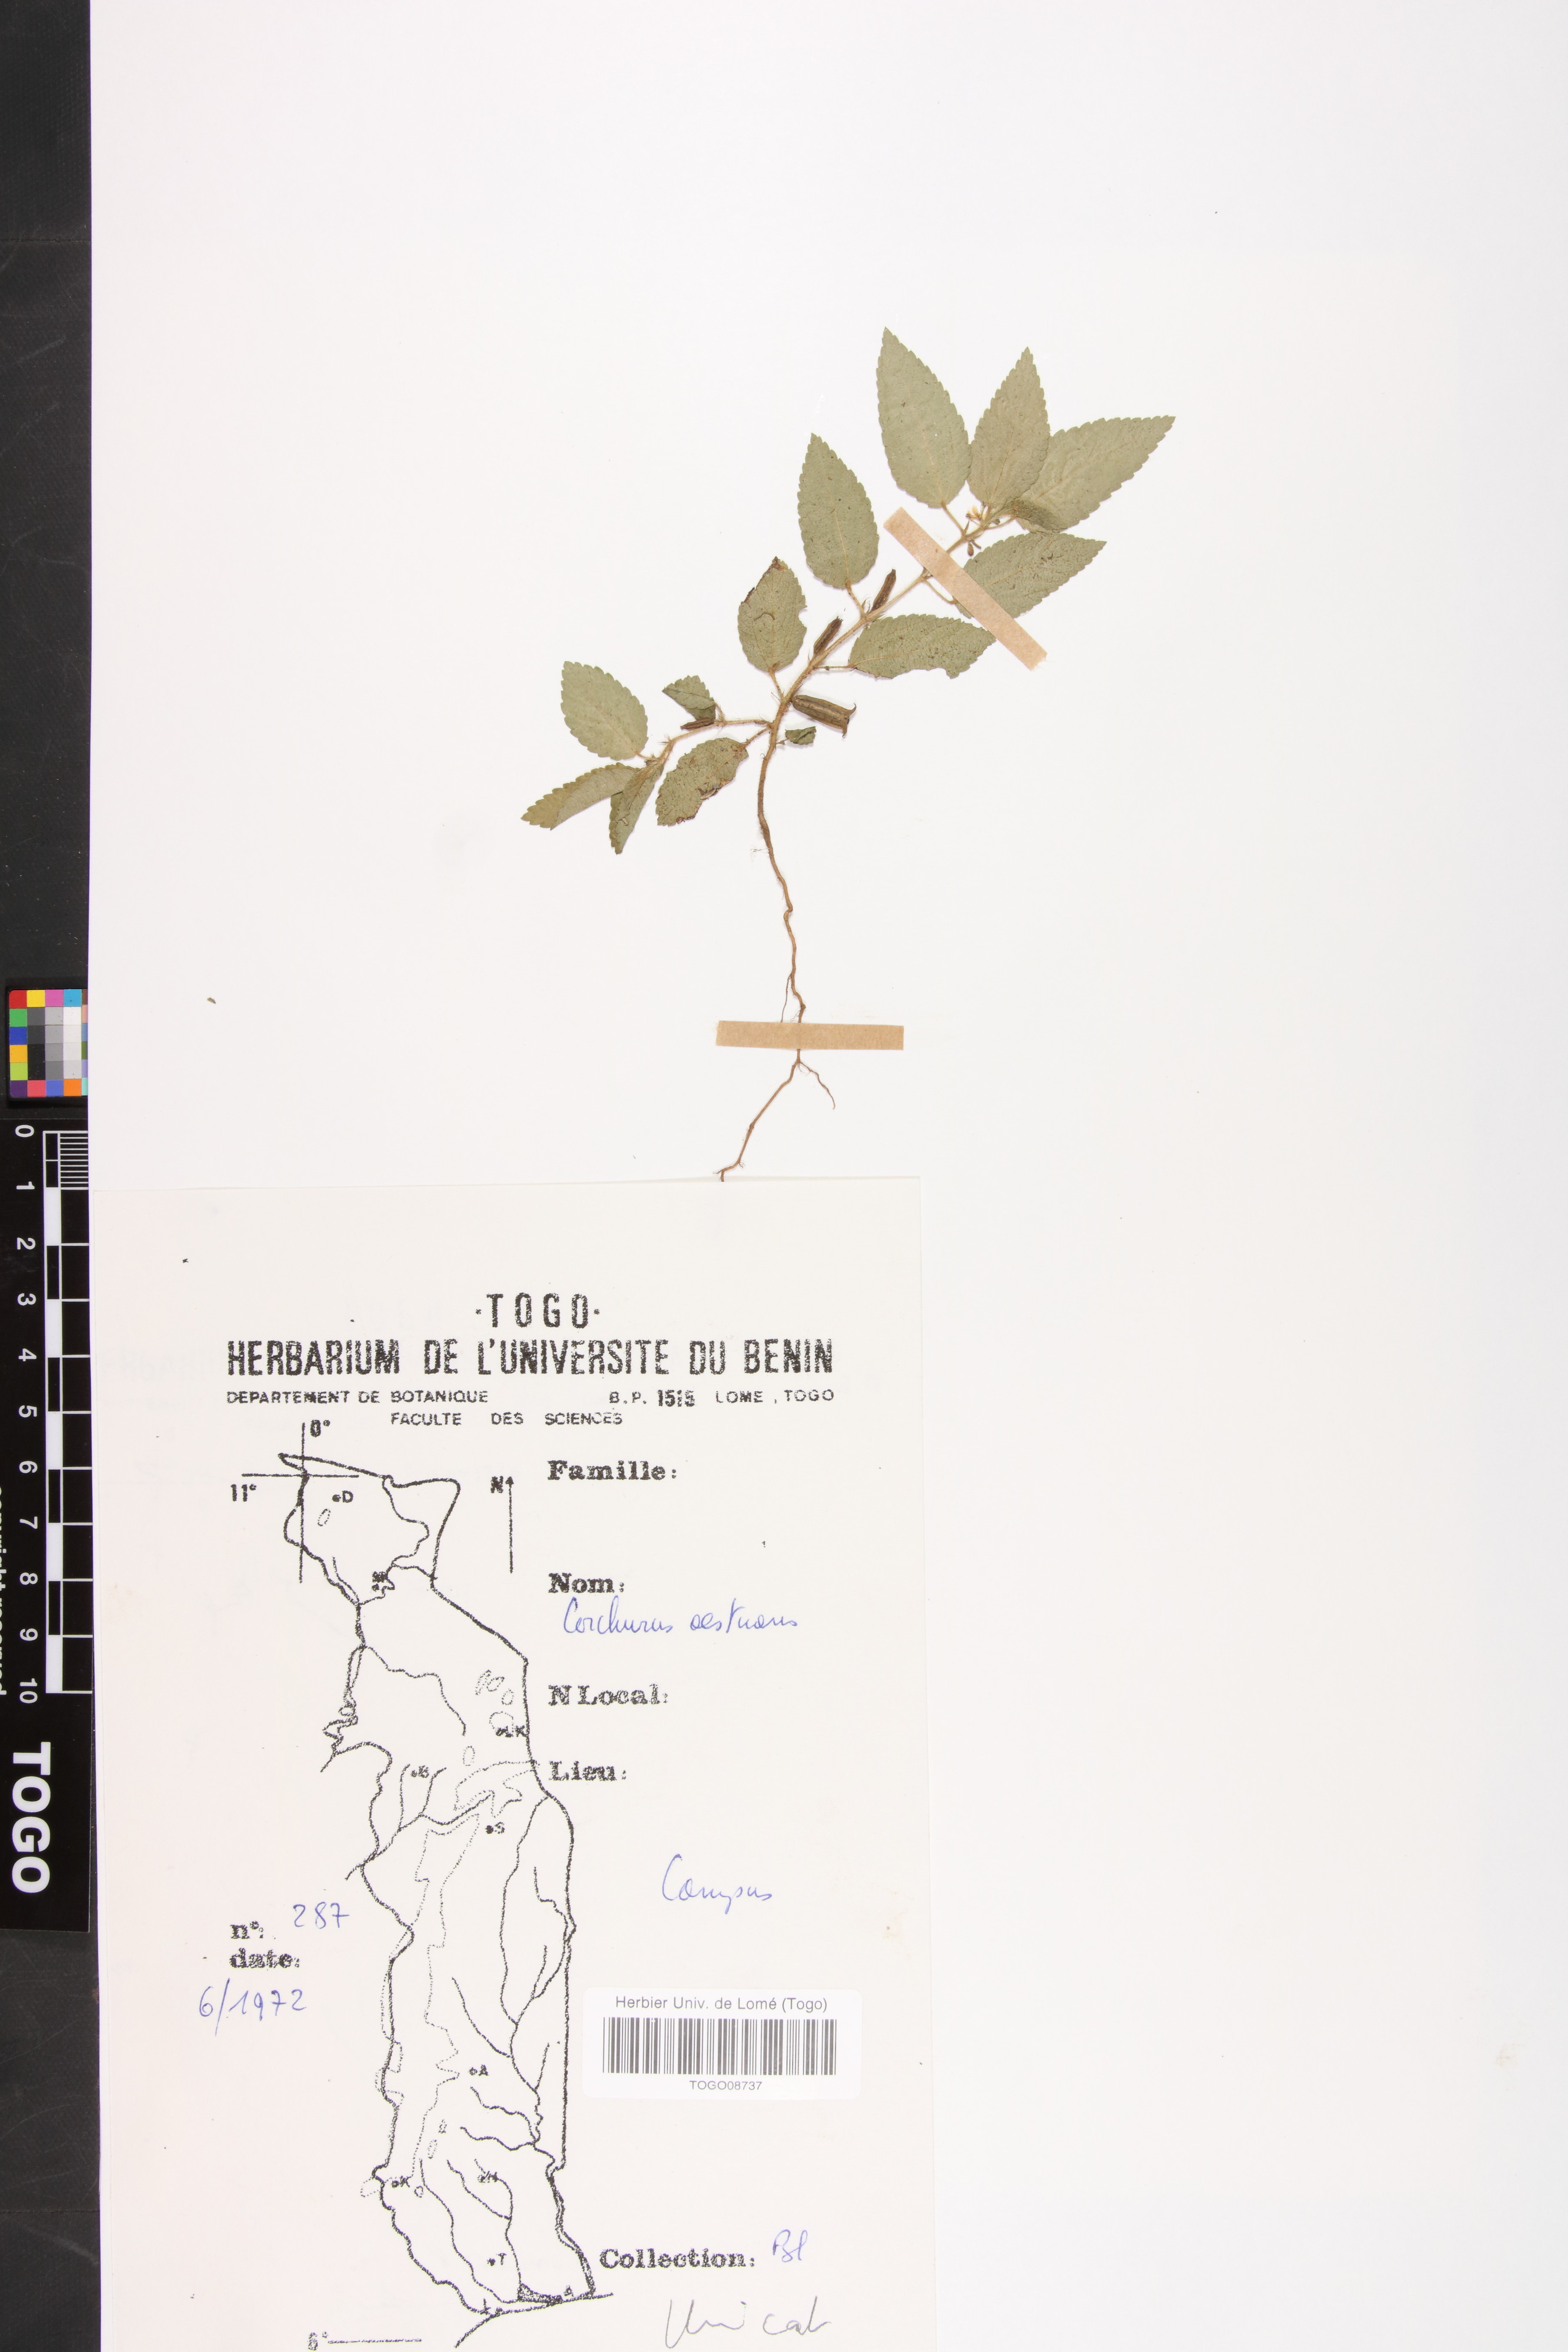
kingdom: Plantae
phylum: Tracheophyta
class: Magnoliopsida
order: Malvales
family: Malvaceae
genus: Corchorus
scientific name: Corchorus aestuans
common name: Jute
